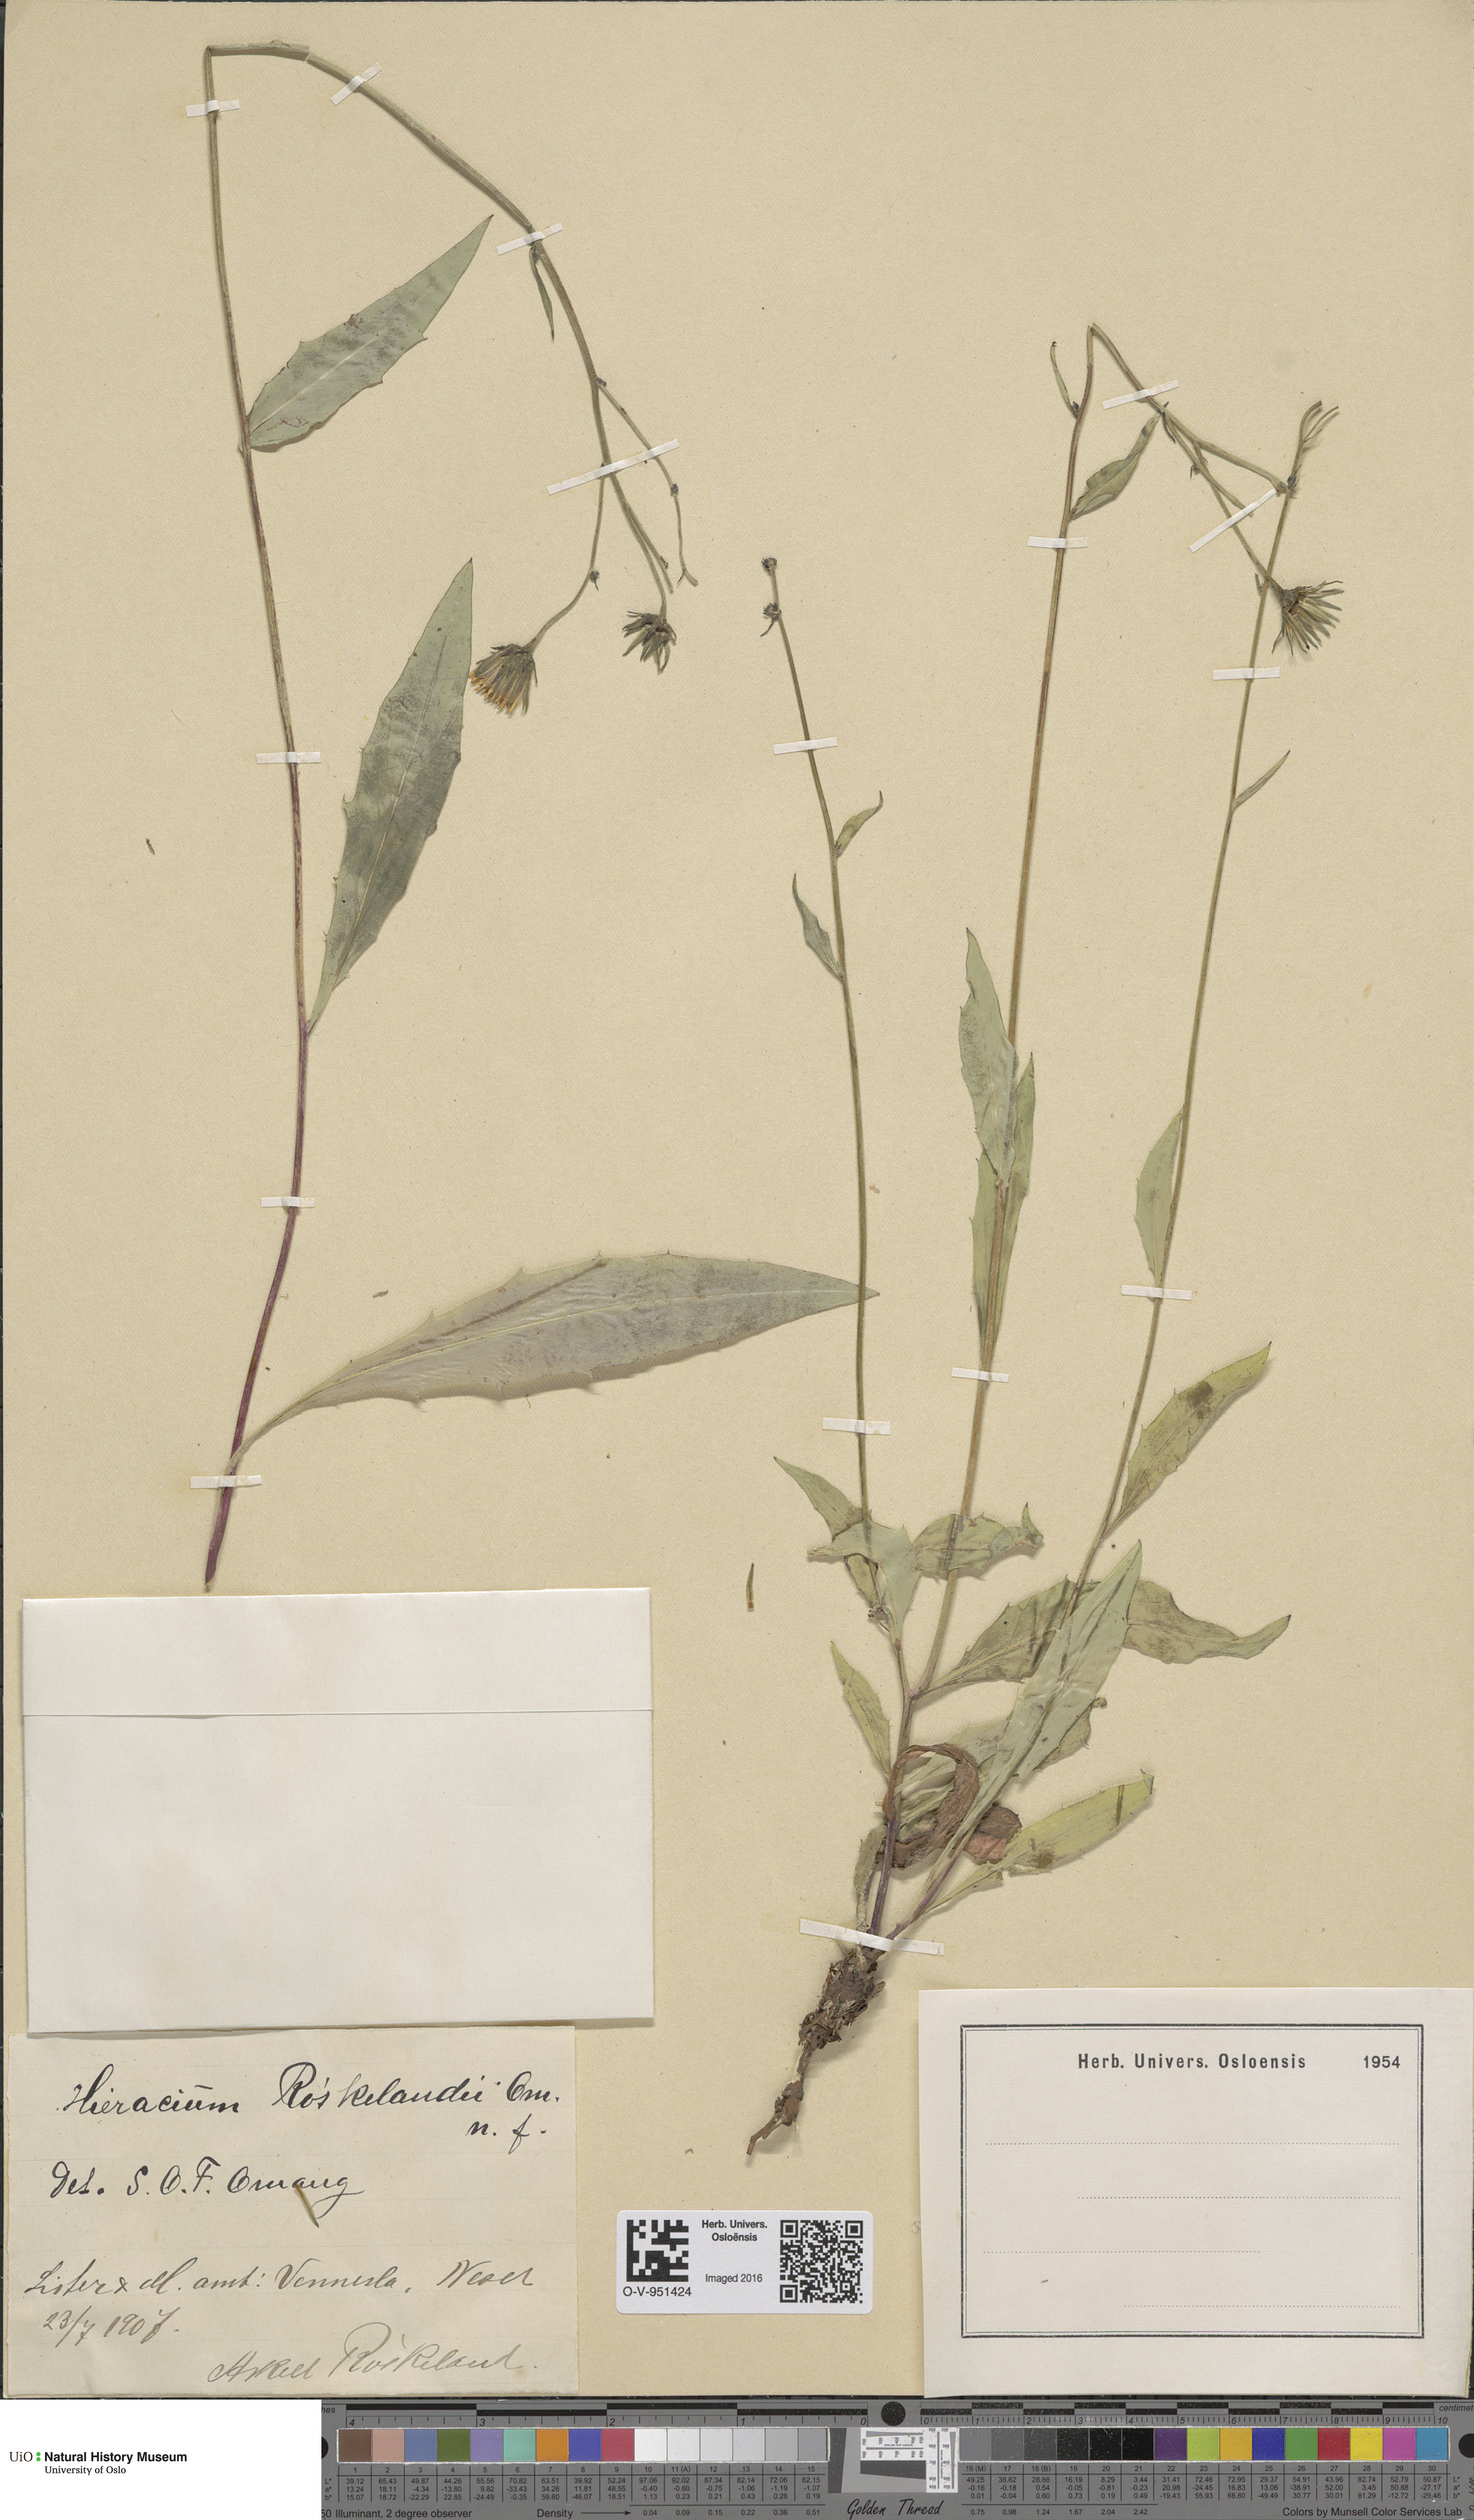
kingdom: Plantae
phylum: Tracheophyta
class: Magnoliopsida
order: Asterales
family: Asteraceae
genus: Hieracium
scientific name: Hieracium
